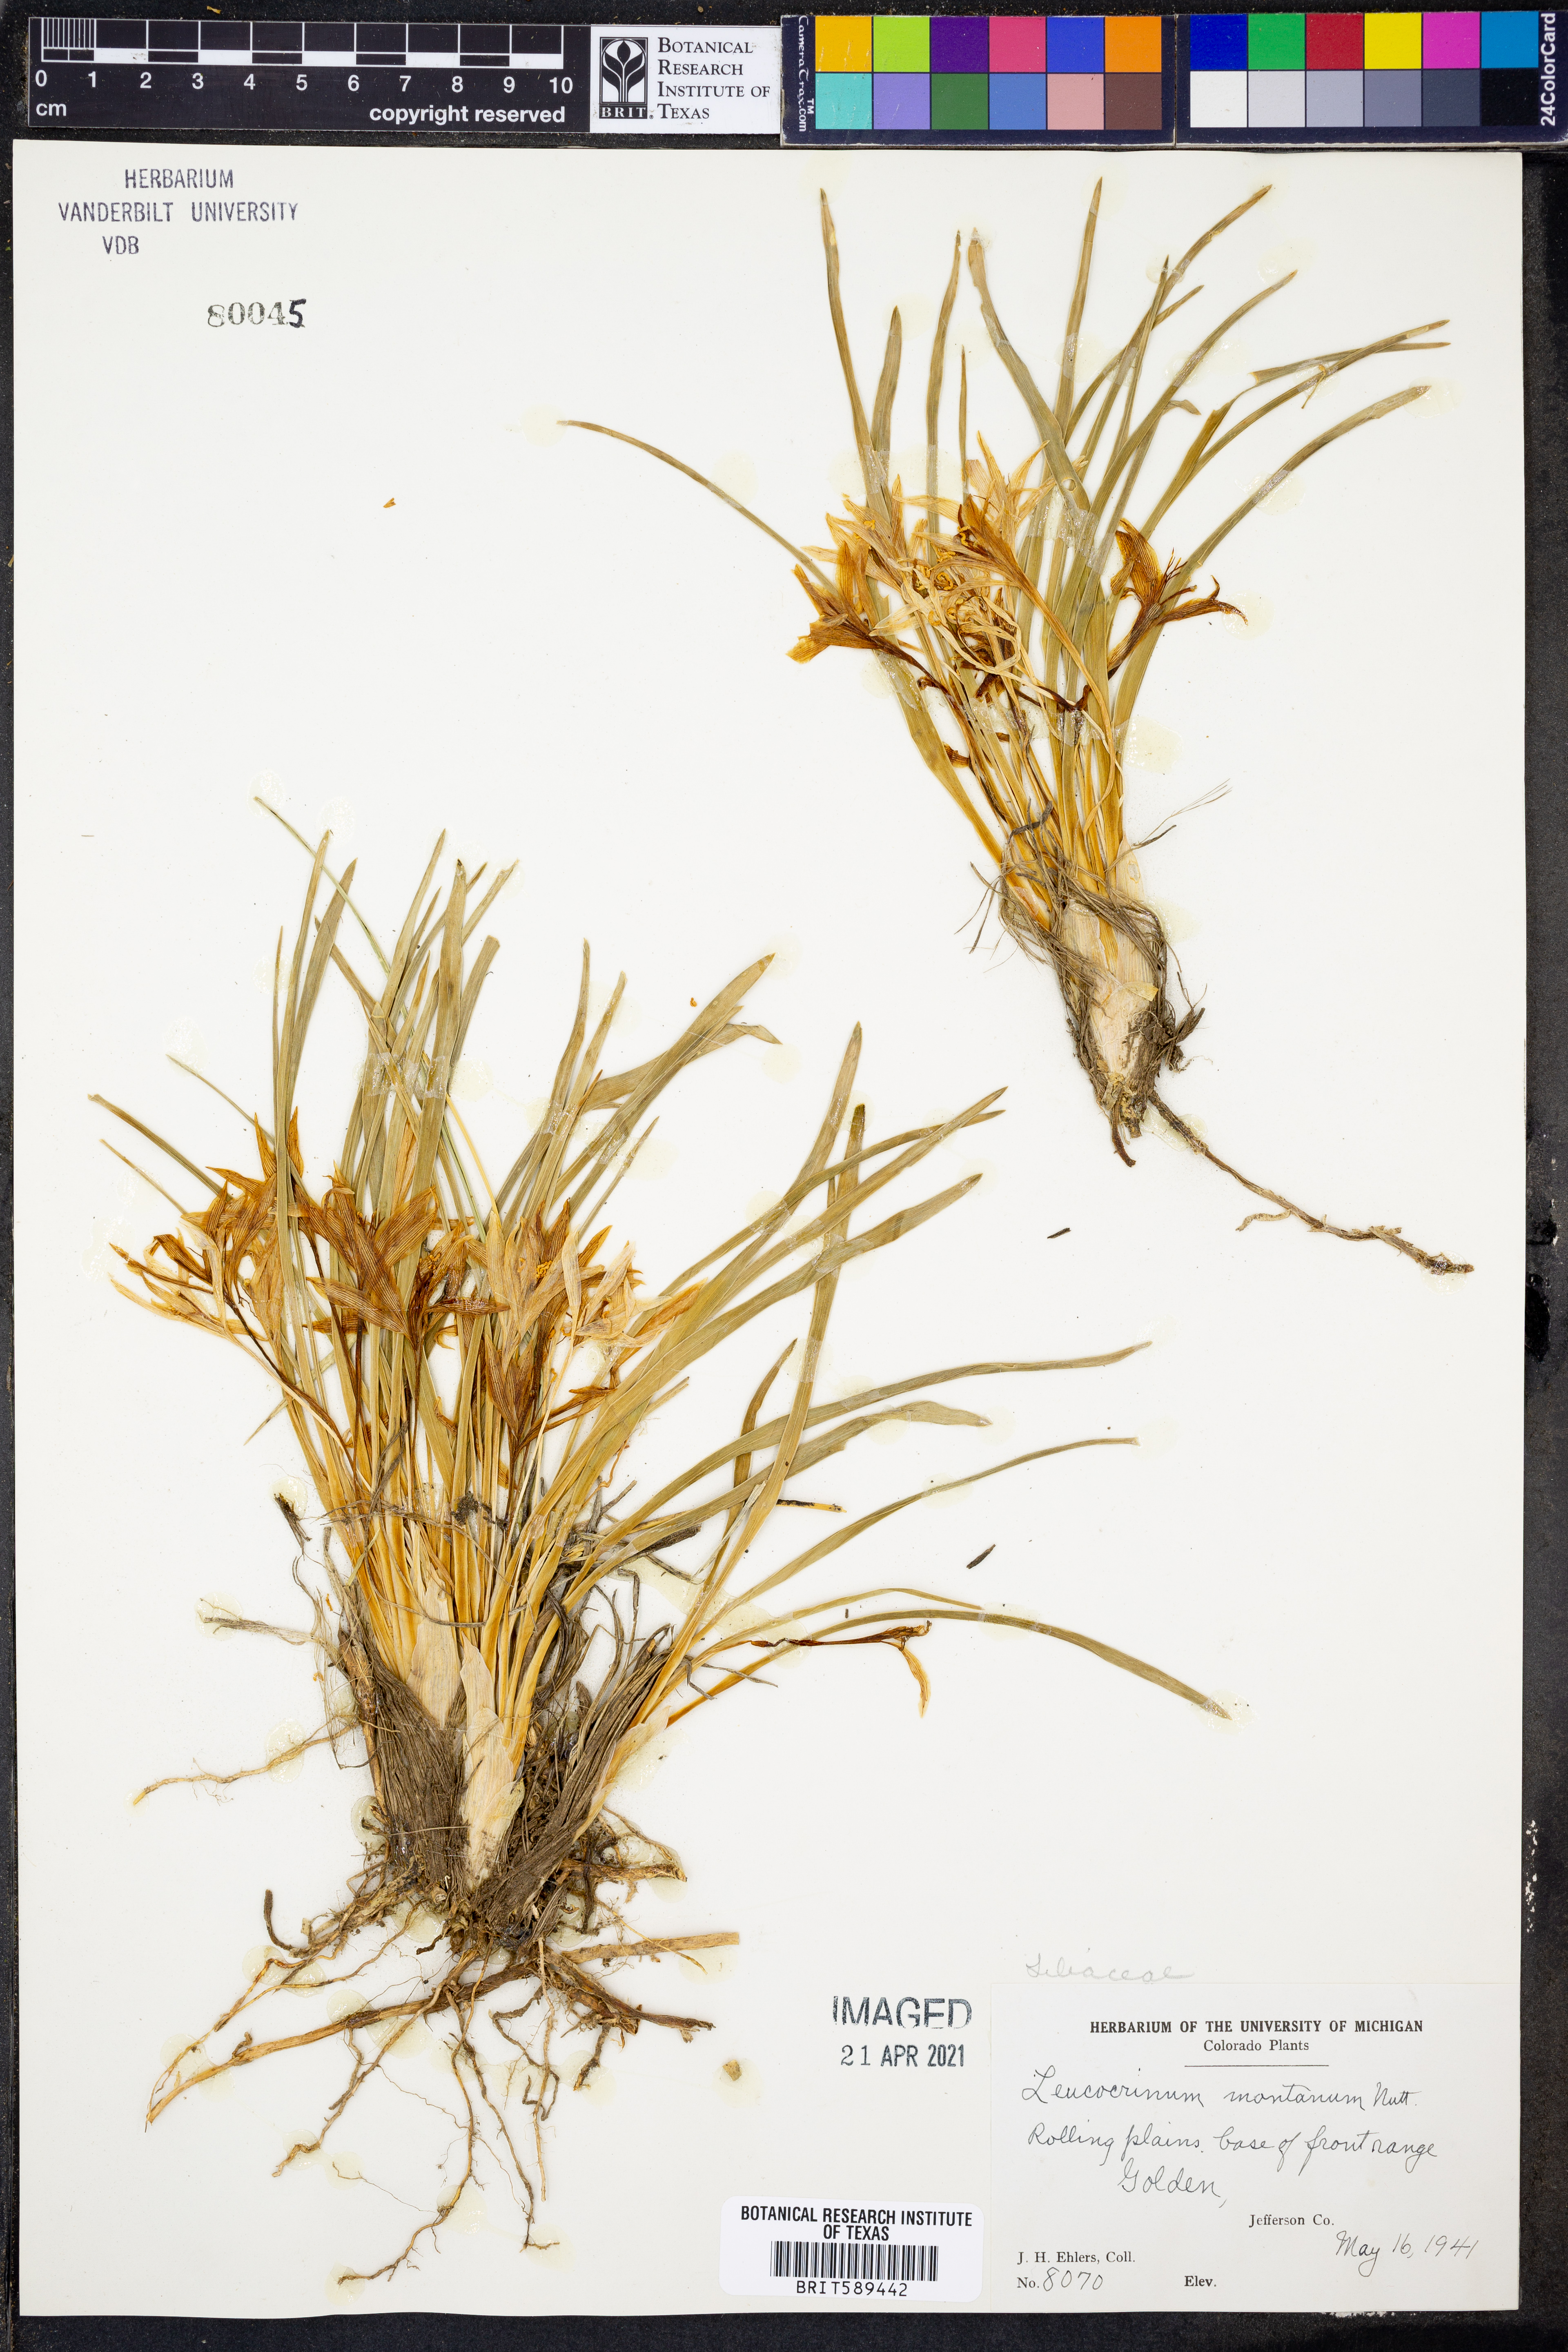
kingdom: Plantae
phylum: Tracheophyta
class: Liliopsida
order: Asparagales
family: Asparagaceae
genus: Leucocrinum
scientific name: Leucocrinum montanum
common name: Mountain-lily
